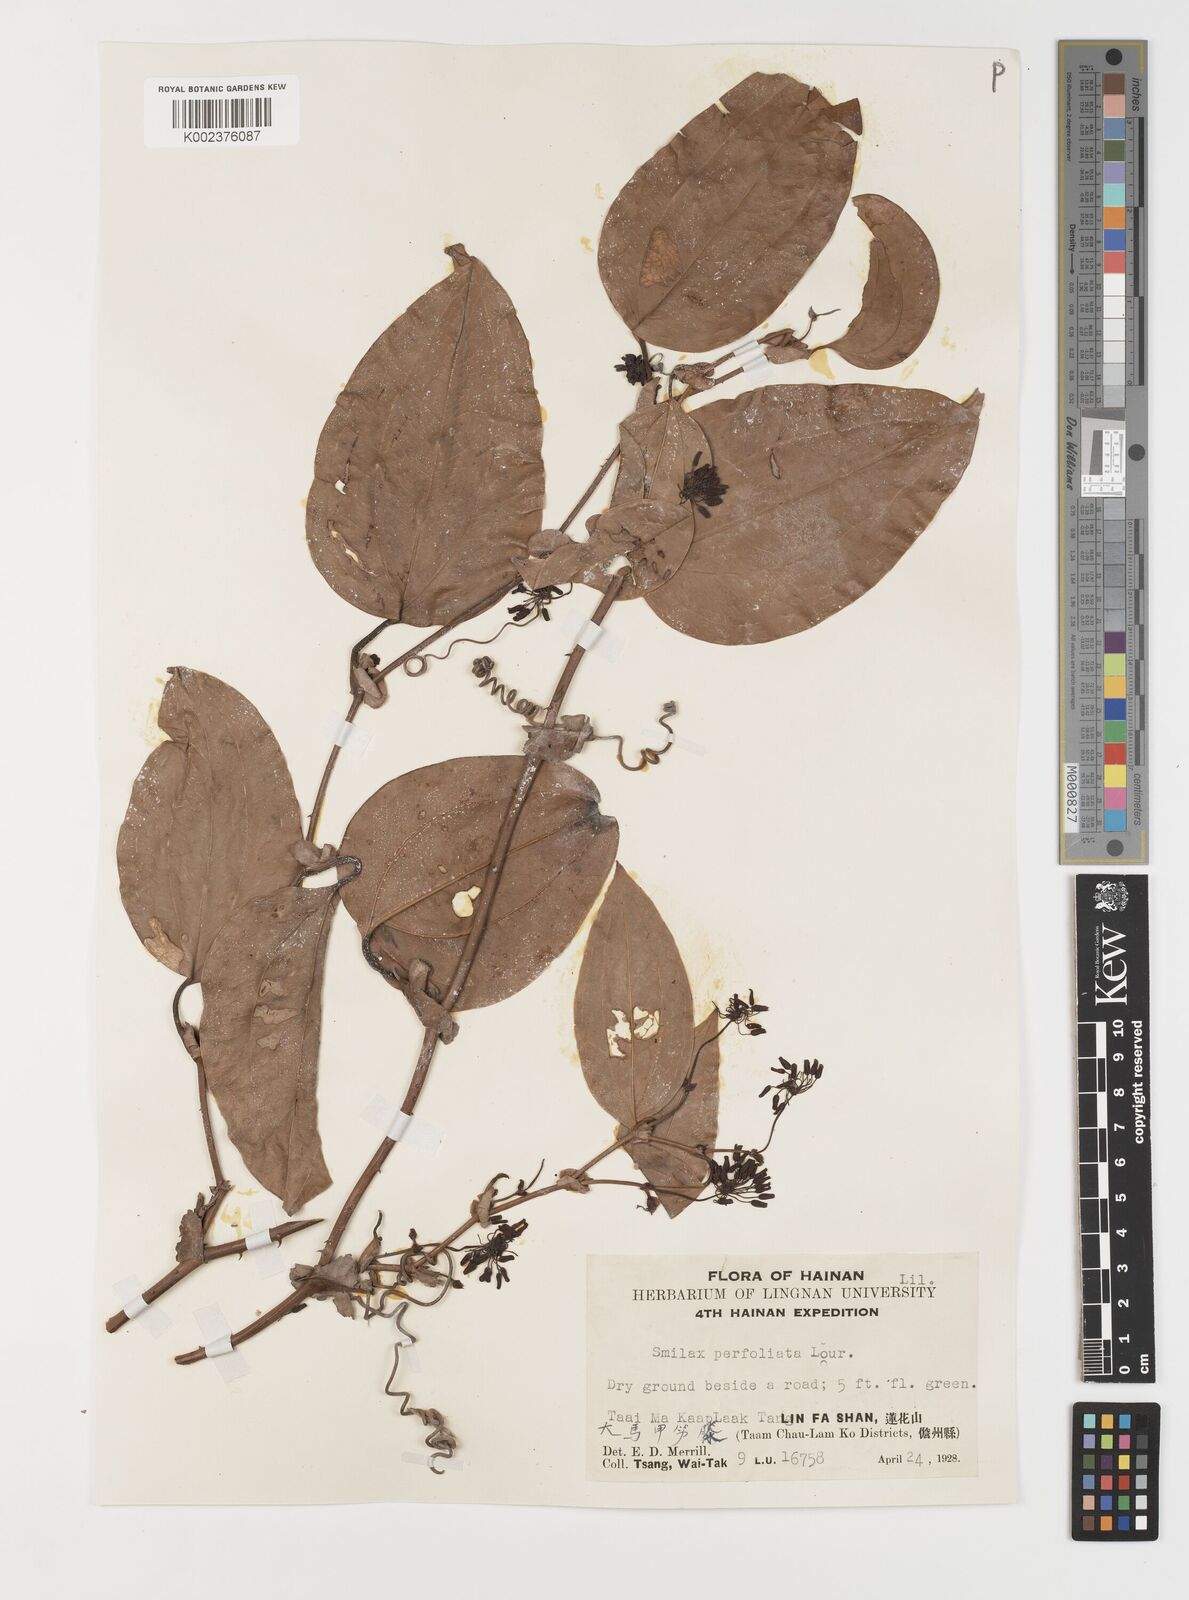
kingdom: Plantae
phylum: Tracheophyta
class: Liliopsida
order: Liliales
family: Smilacaceae
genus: Smilax
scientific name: Smilax ocreata
